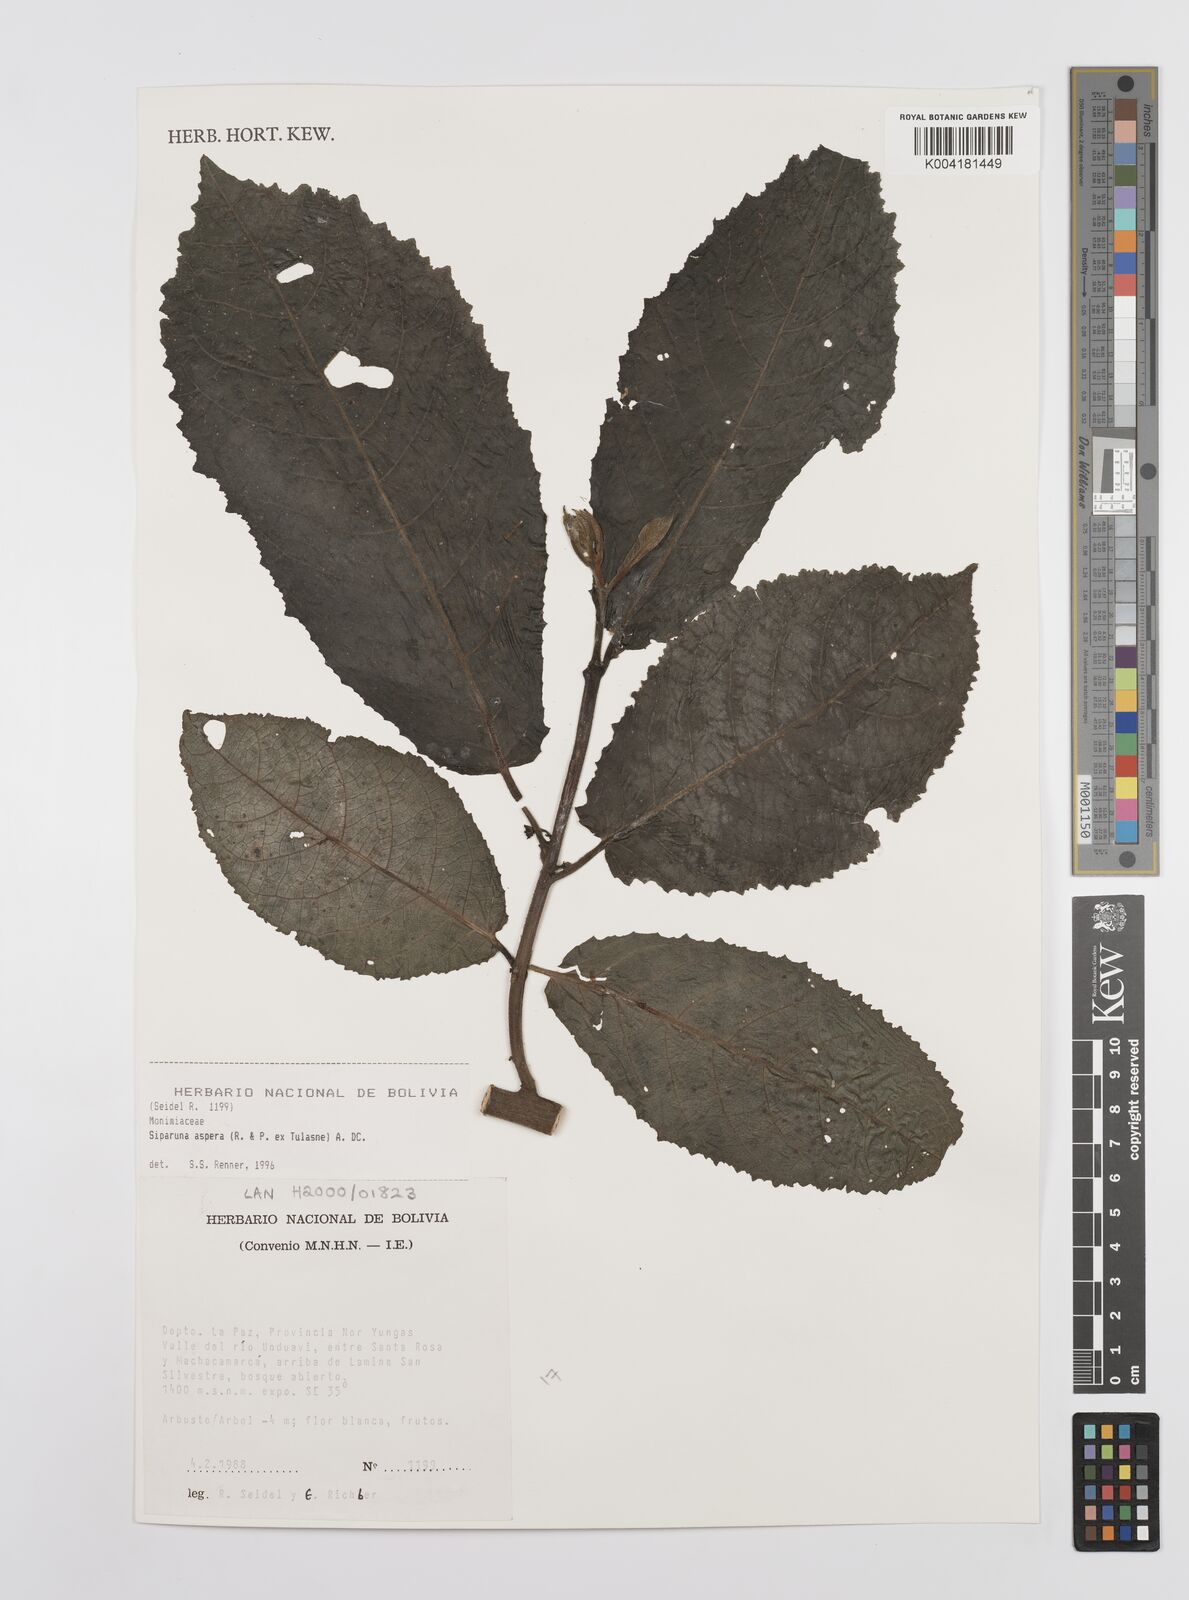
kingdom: Plantae
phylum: Tracheophyta
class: Magnoliopsida
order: Laurales
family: Siparunaceae
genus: Siparuna
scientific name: Siparuna aspera
